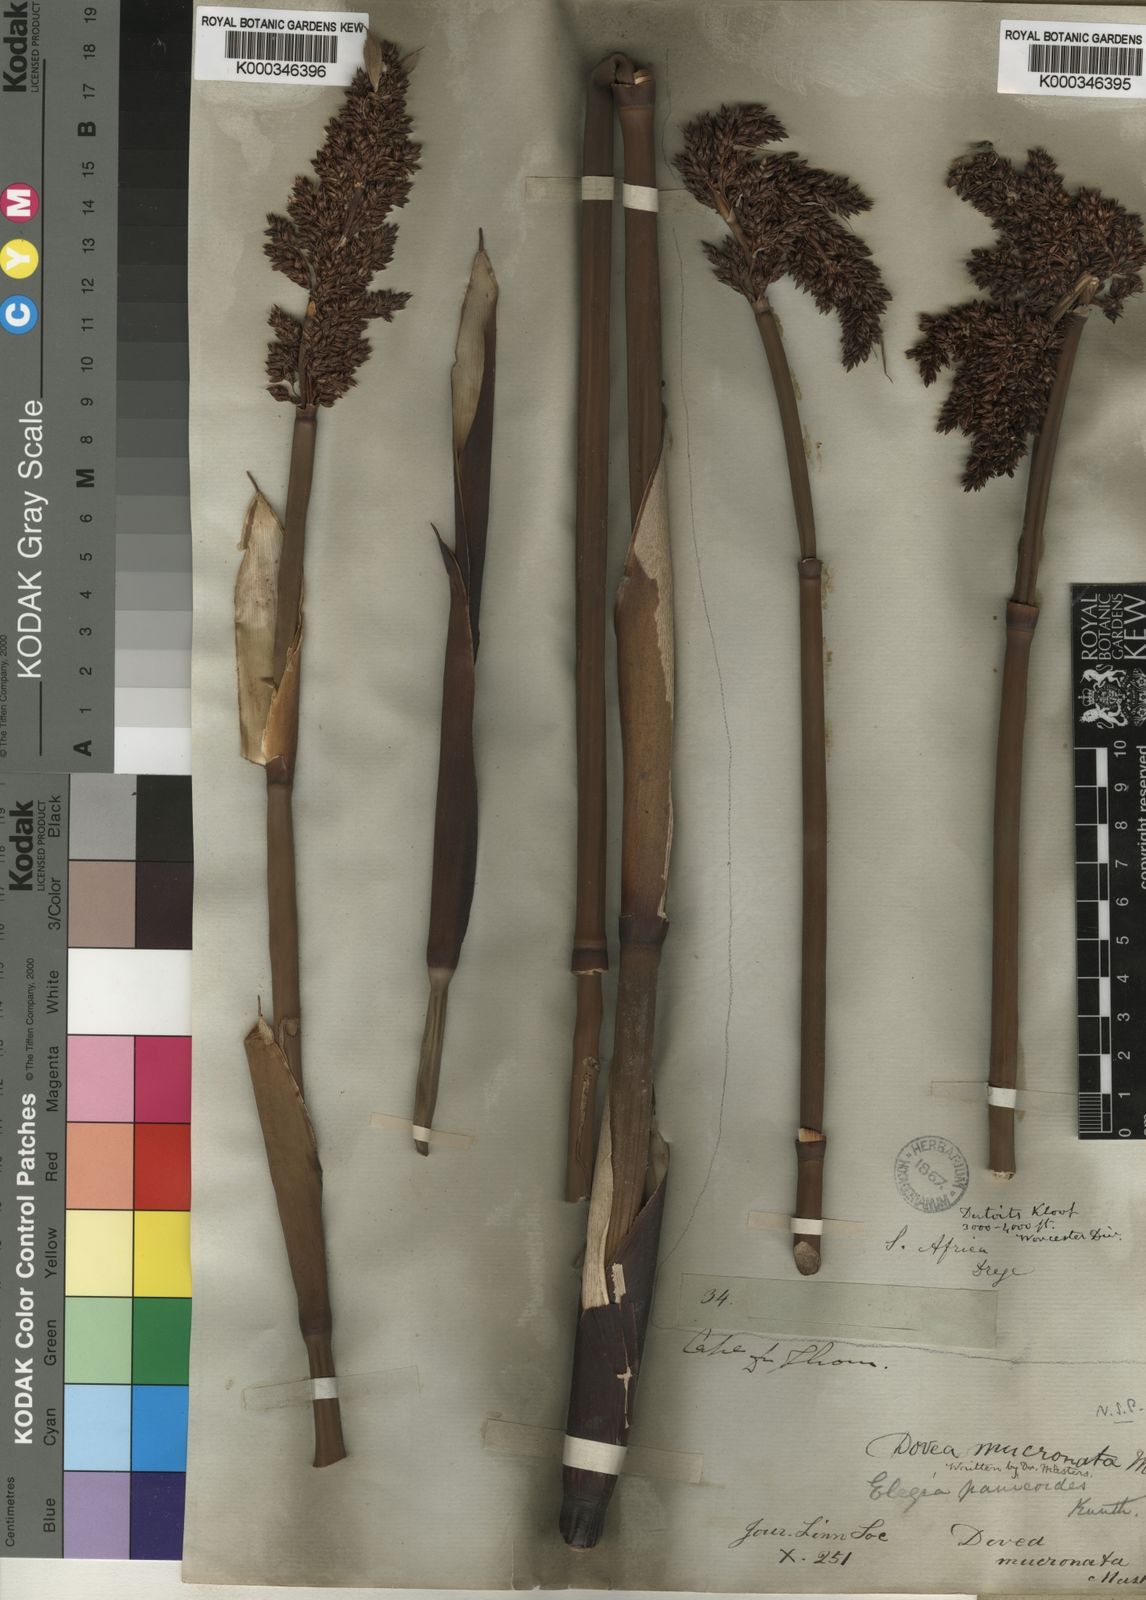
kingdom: Plantae
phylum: Tracheophyta
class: Liliopsida
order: Poales
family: Restionaceae
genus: Elegia
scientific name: Elegia mucronata
